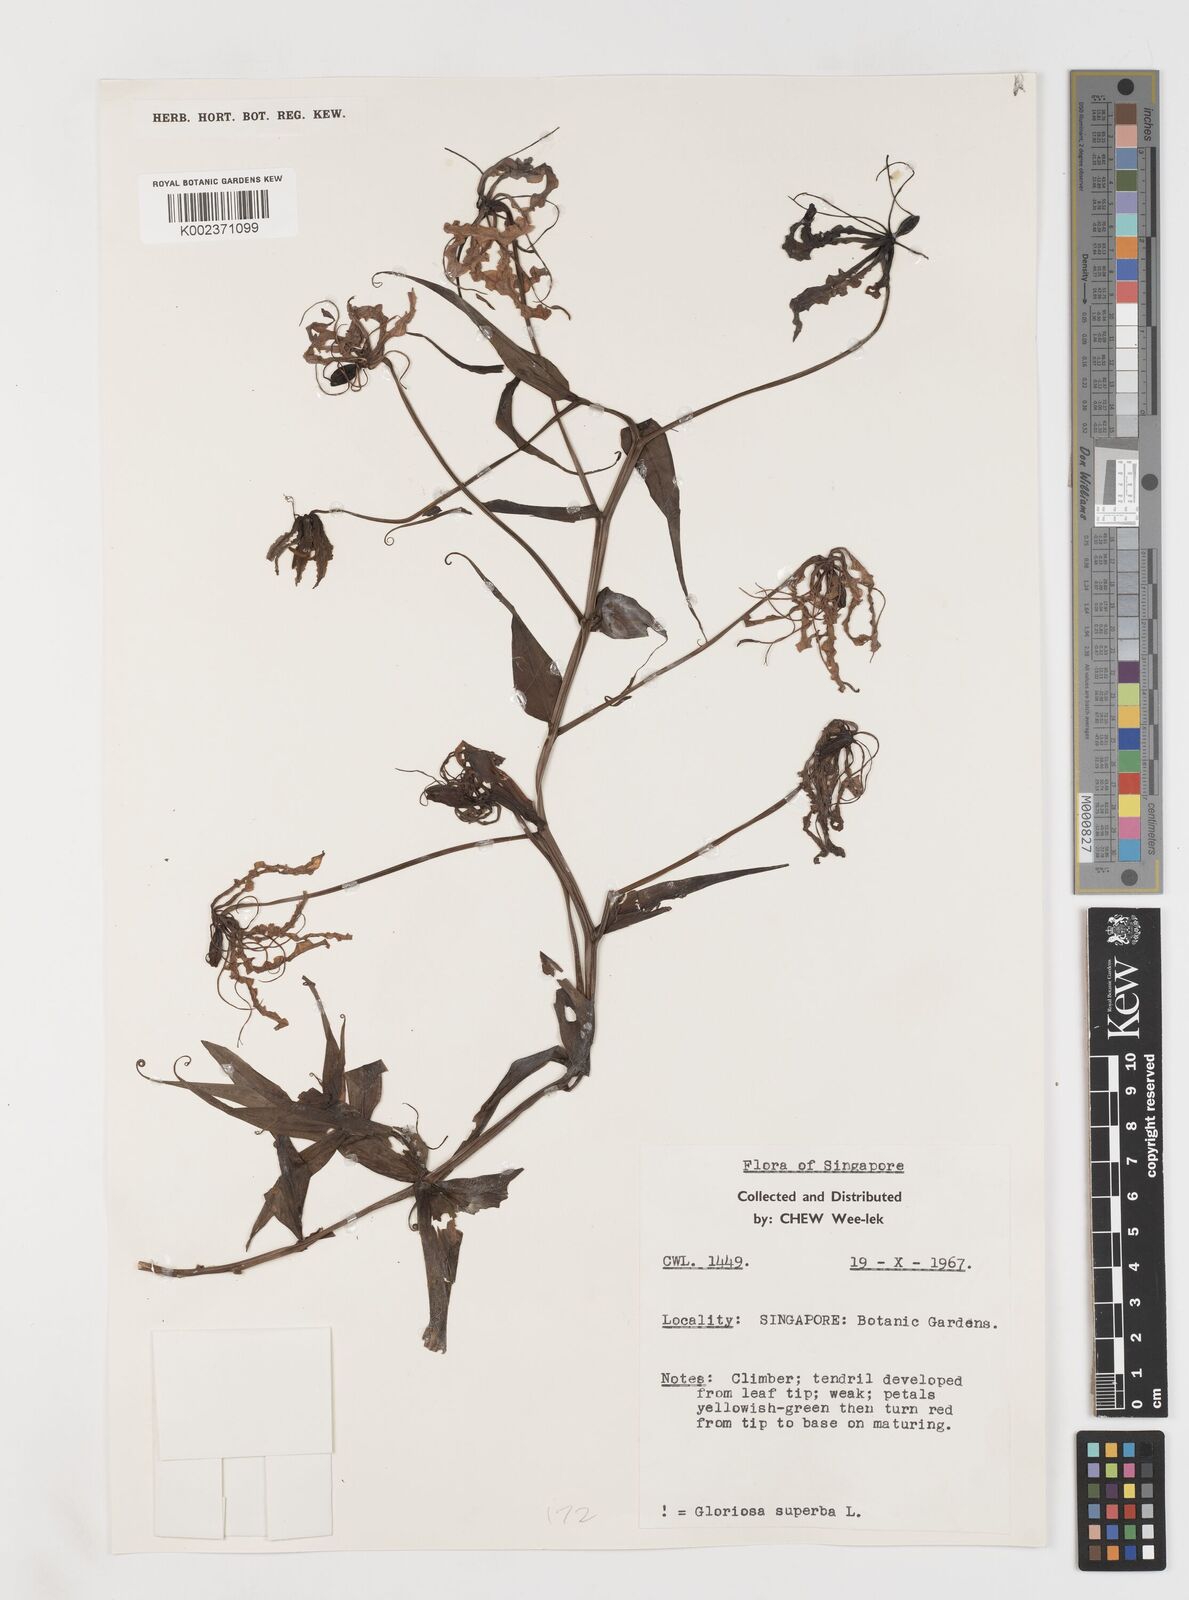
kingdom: Plantae
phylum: Tracheophyta
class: Liliopsida
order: Liliales
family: Colchicaceae
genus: Gloriosa
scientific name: Gloriosa superba
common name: Flame lily
